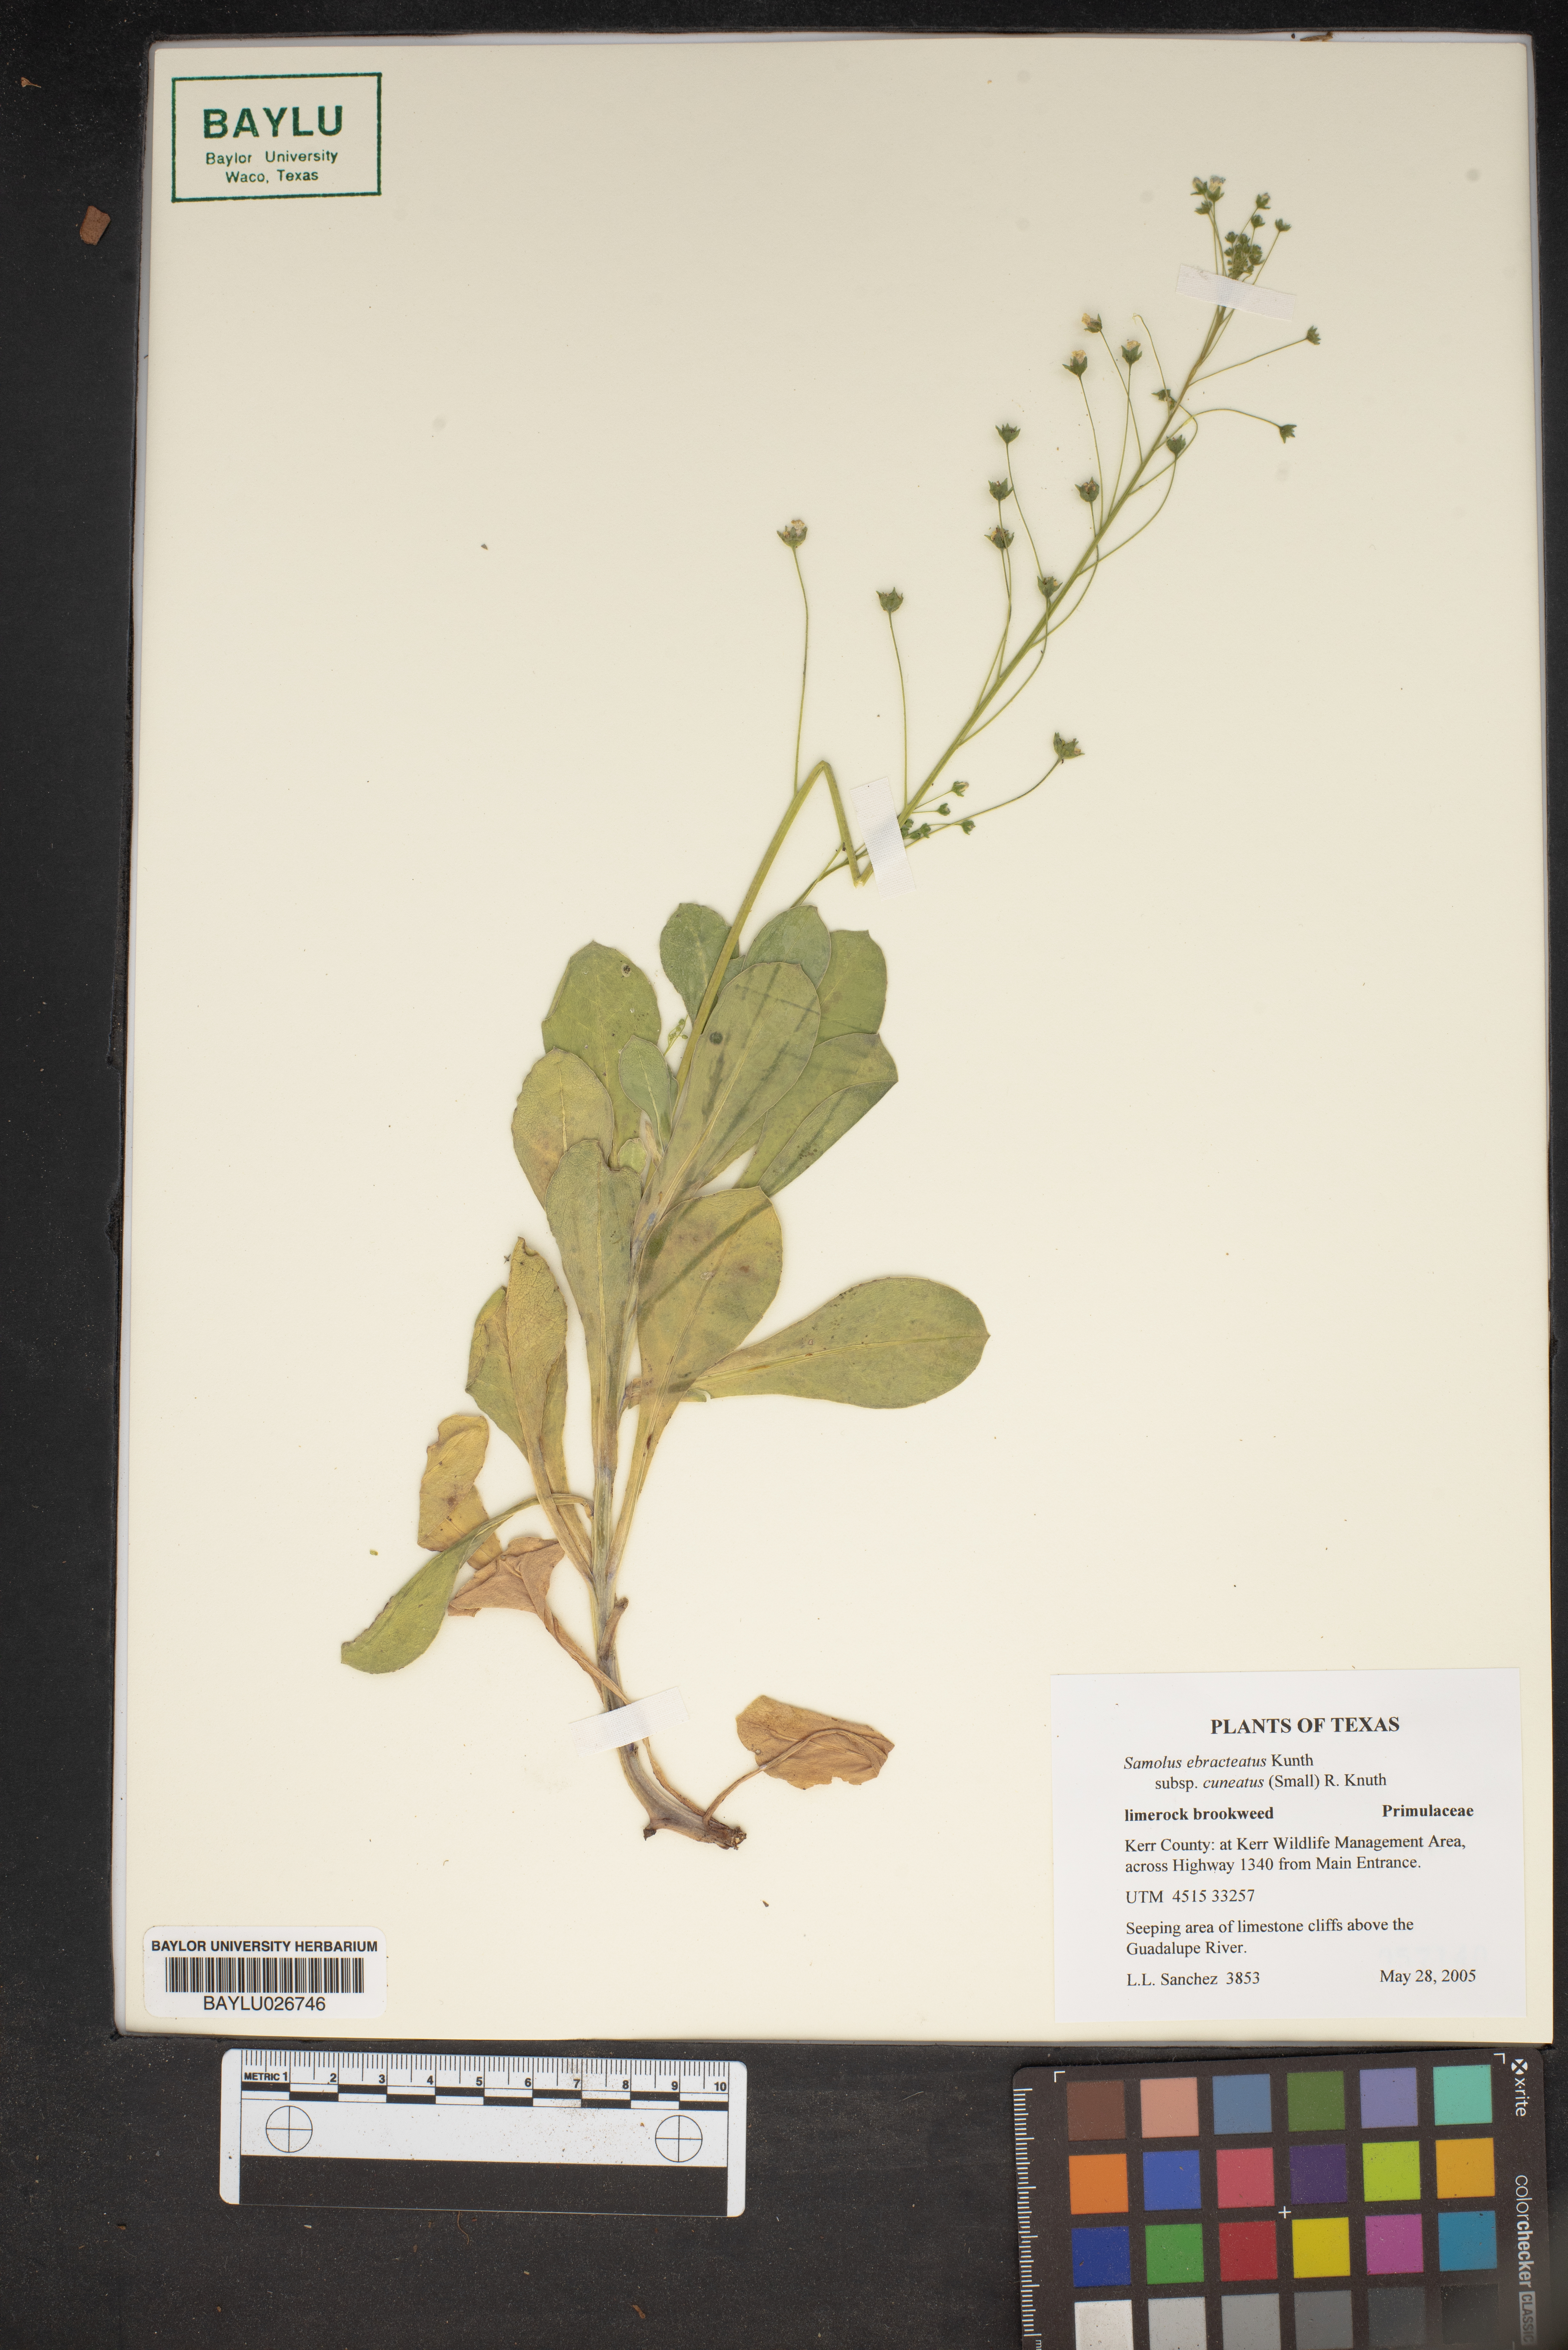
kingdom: Plantae
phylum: Tracheophyta
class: Magnoliopsida
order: Ericales
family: Primulaceae
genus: Samolus
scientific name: Samolus ebracteatus
